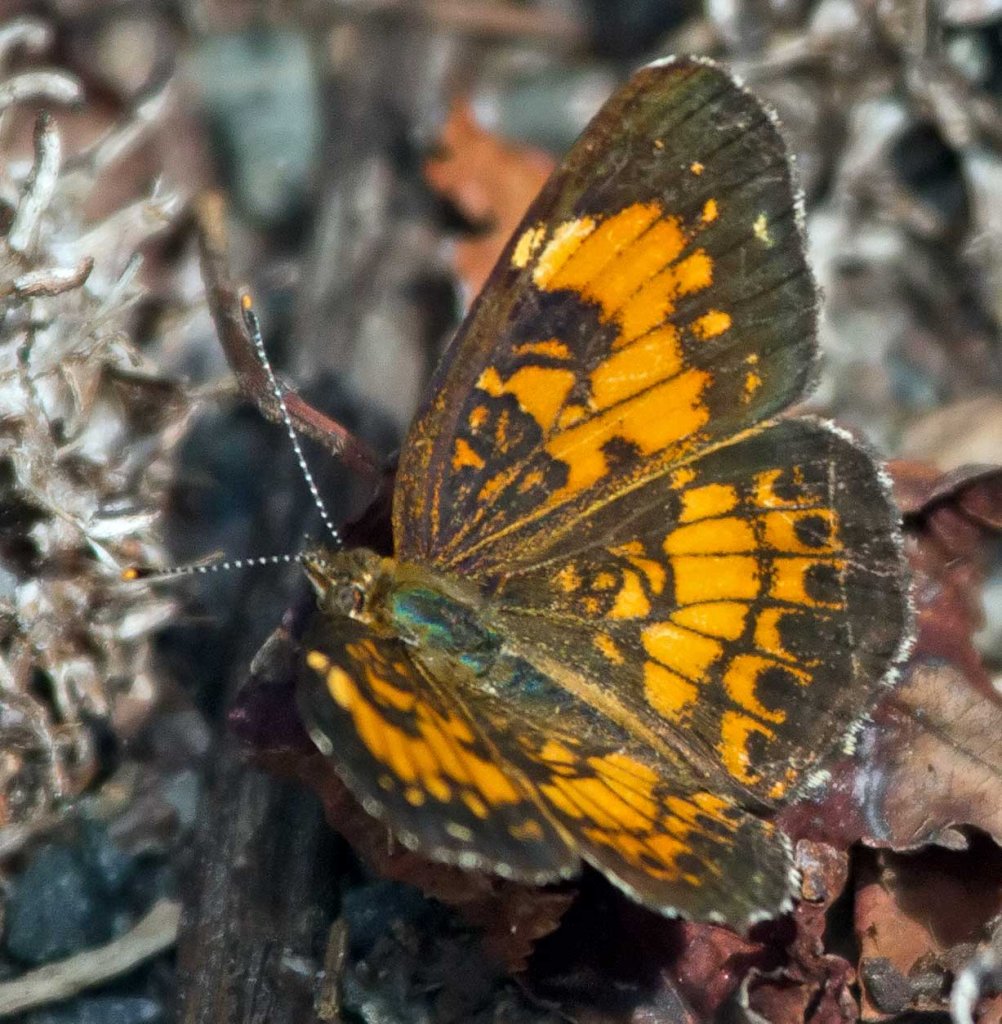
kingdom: Animalia
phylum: Arthropoda
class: Insecta
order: Lepidoptera
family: Nymphalidae
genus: Phyciodes
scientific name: Phyciodes tharos
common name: Pearl Crescent
